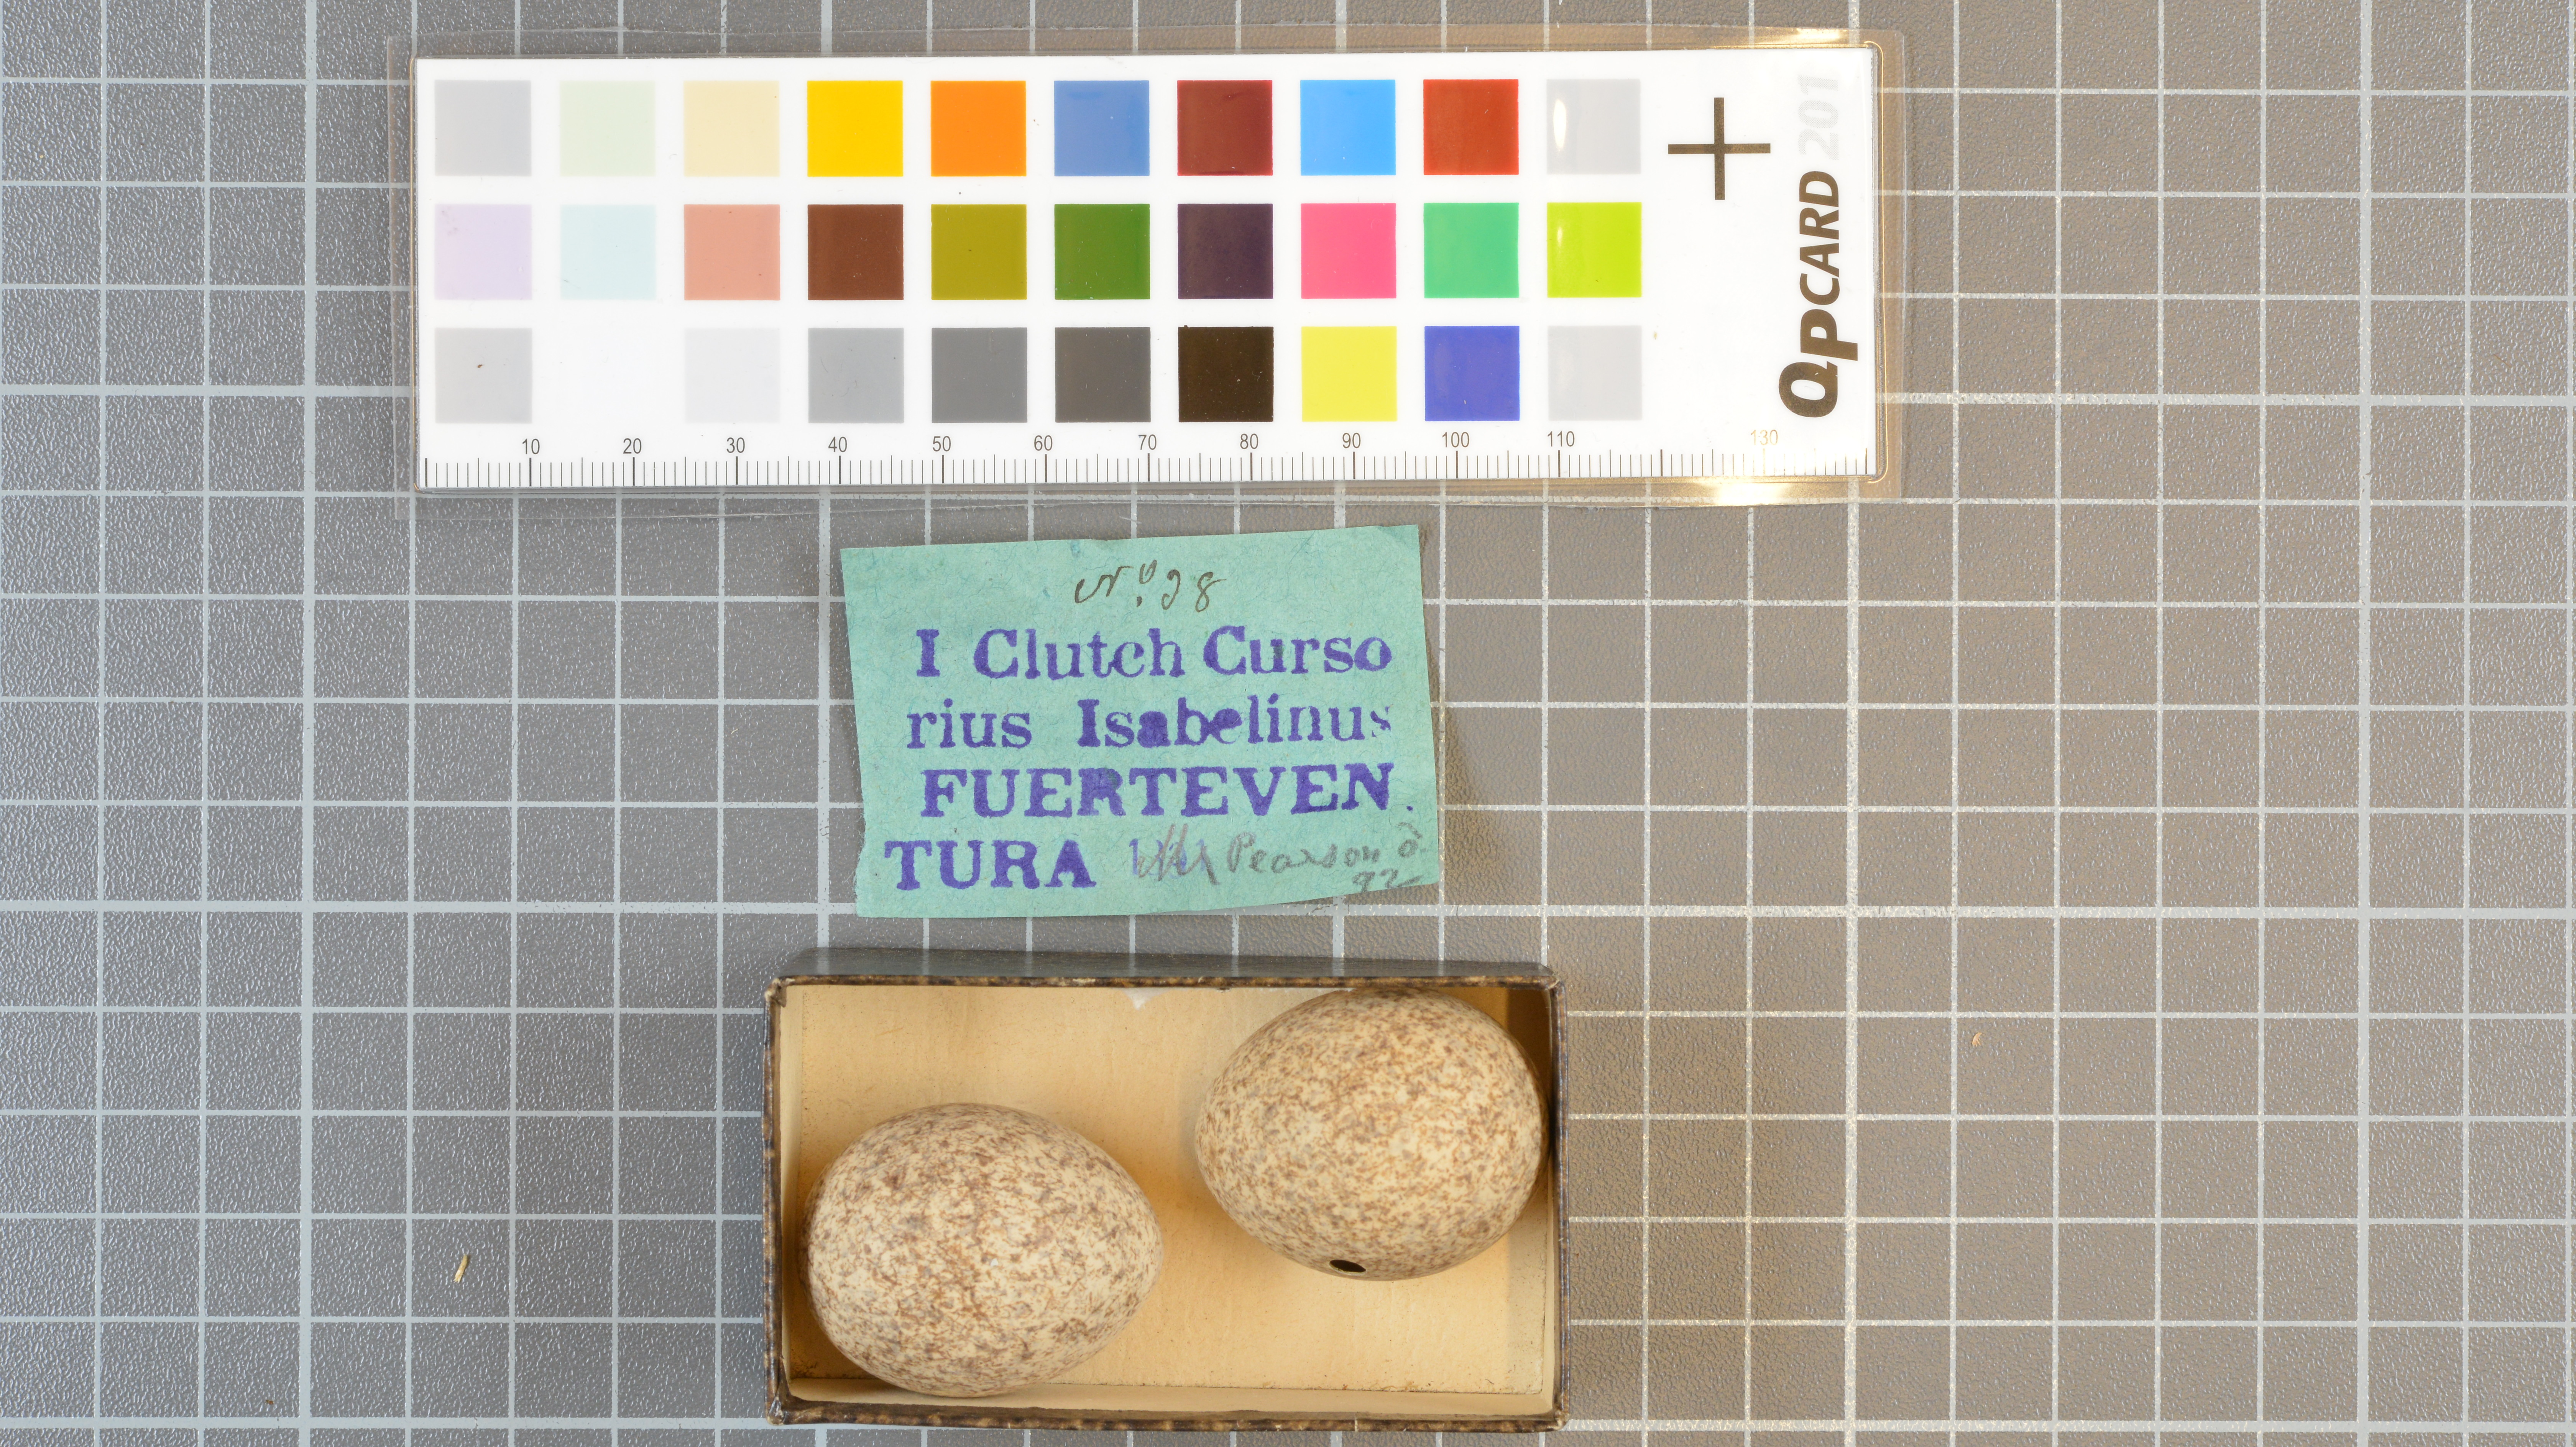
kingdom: Animalia
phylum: Chordata
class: Aves
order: Charadriiformes
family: Glareolidae
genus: Cursorius
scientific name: Cursorius cursor
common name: Cream-colored courser
